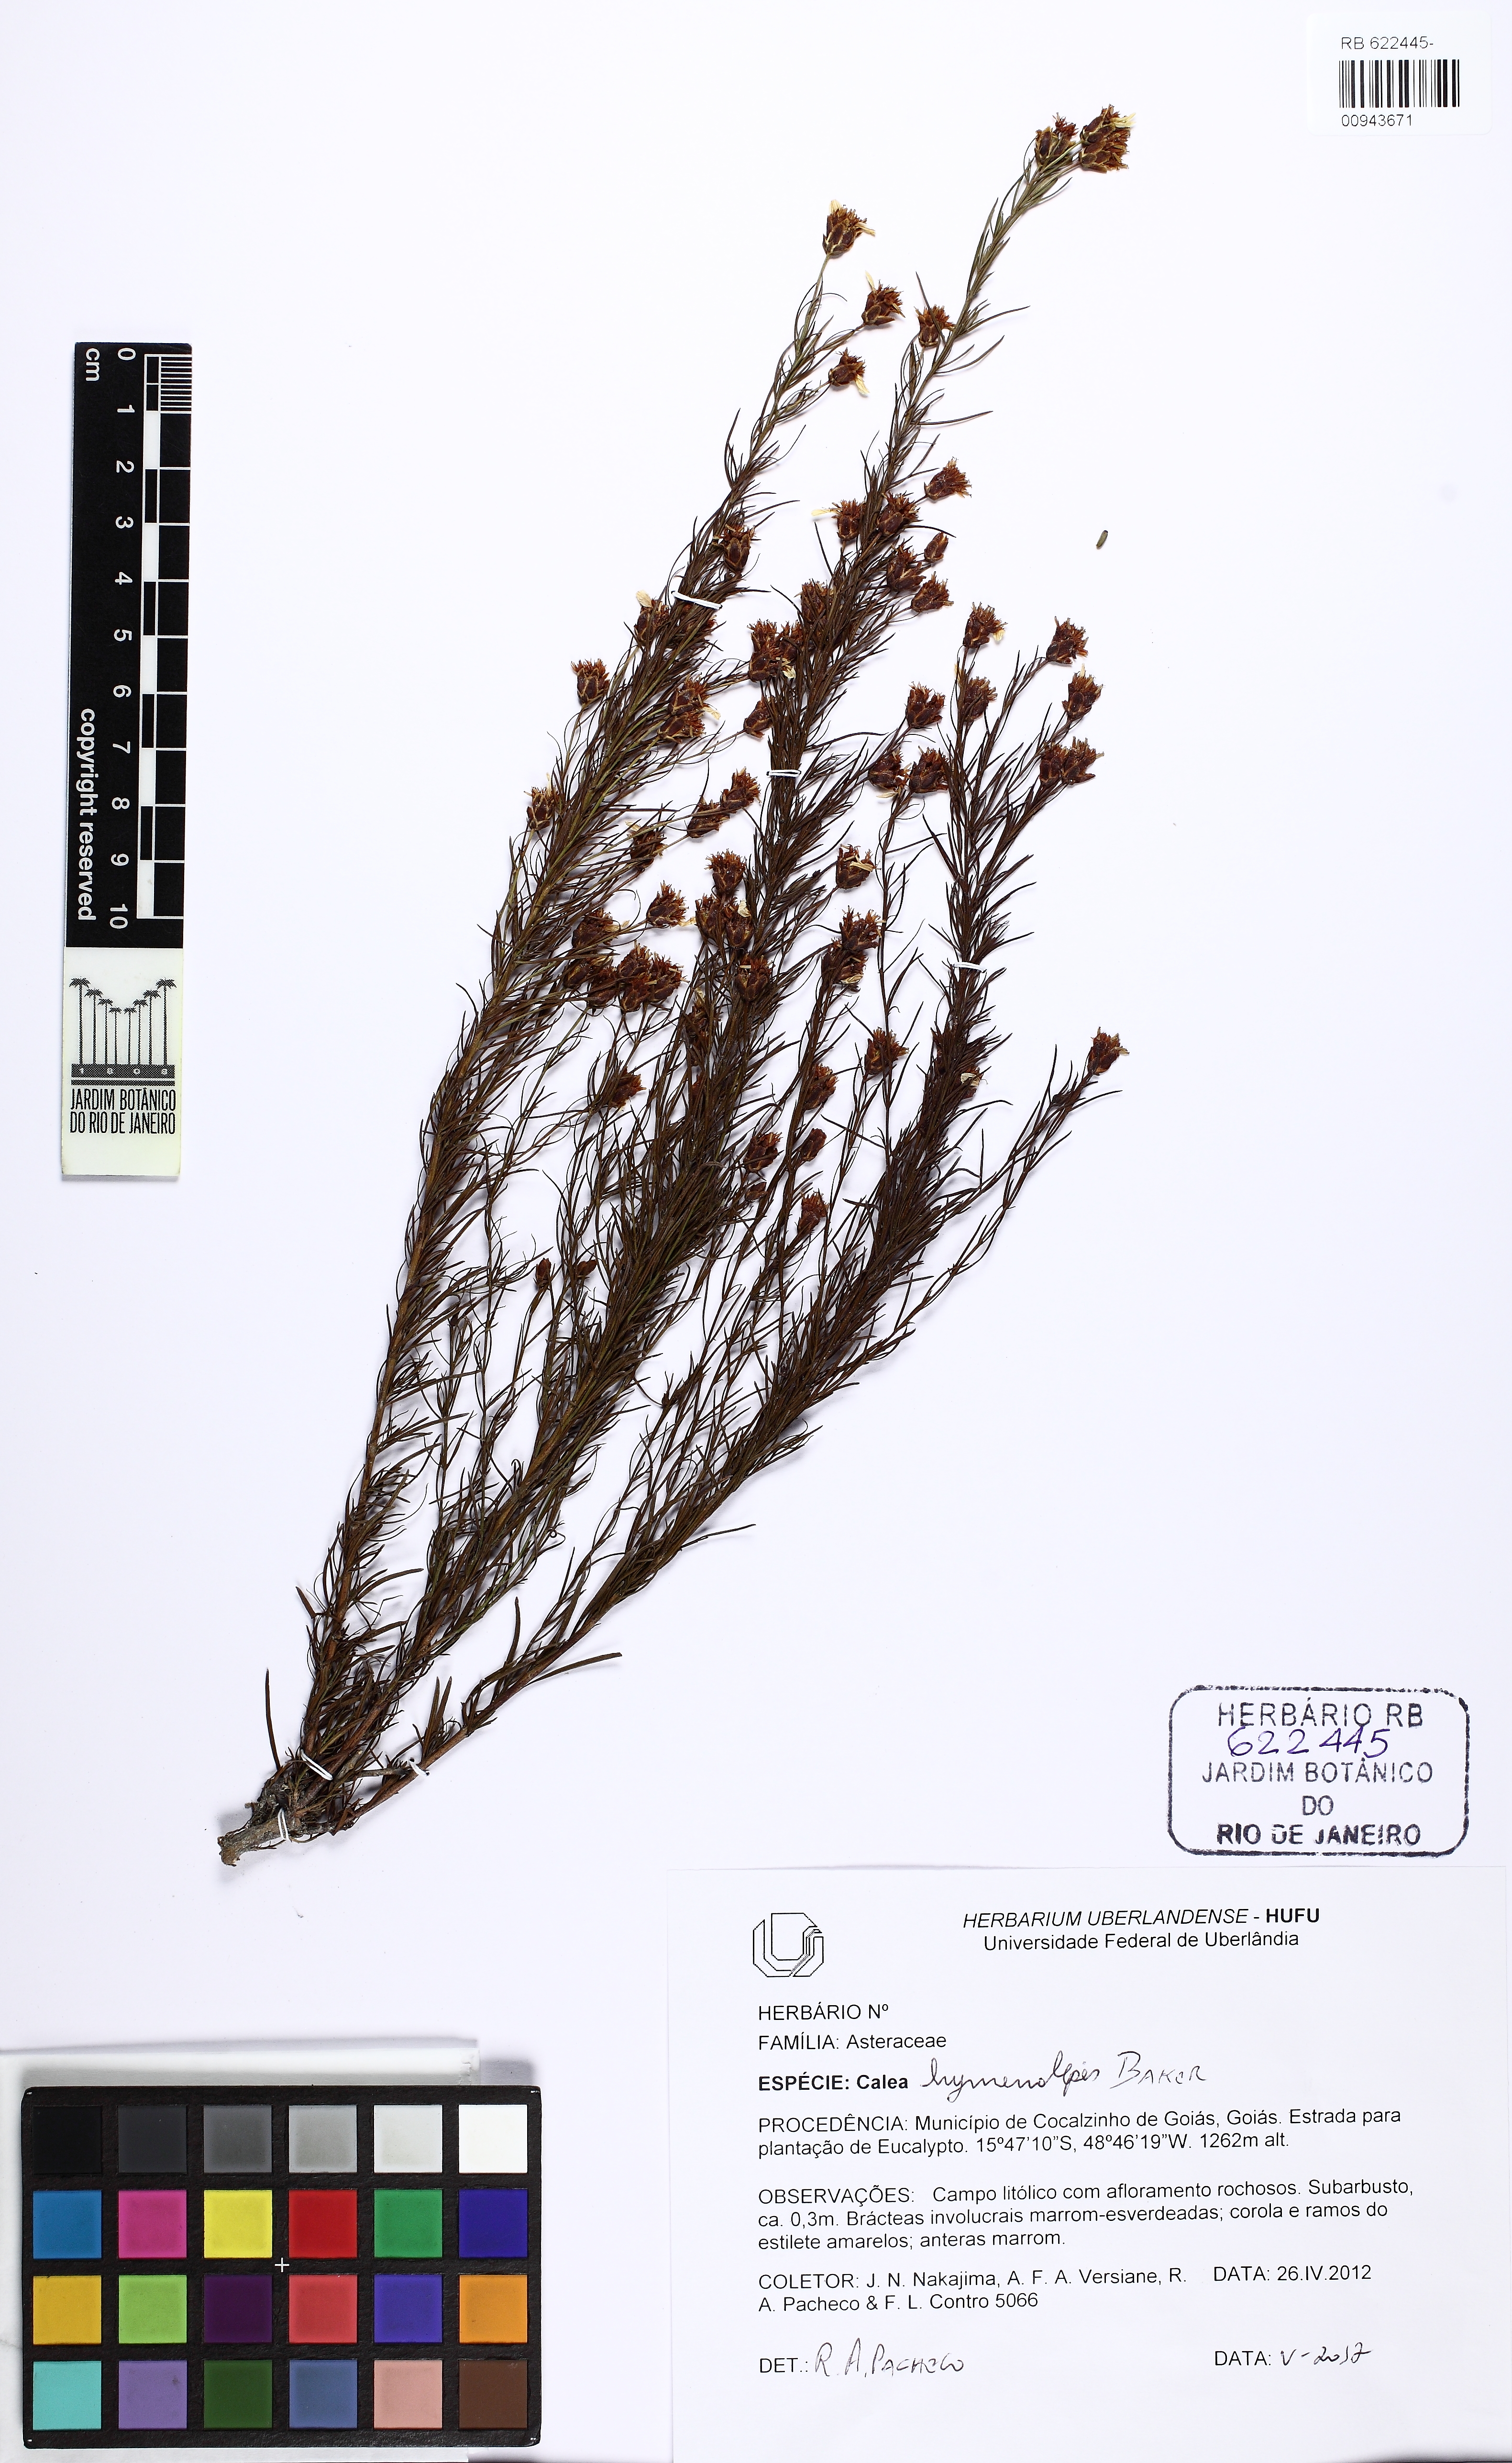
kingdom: Plantae
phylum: Tracheophyta
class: Magnoliopsida
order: Asterales
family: Asteraceae
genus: Calea
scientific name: Calea hymenolepis
